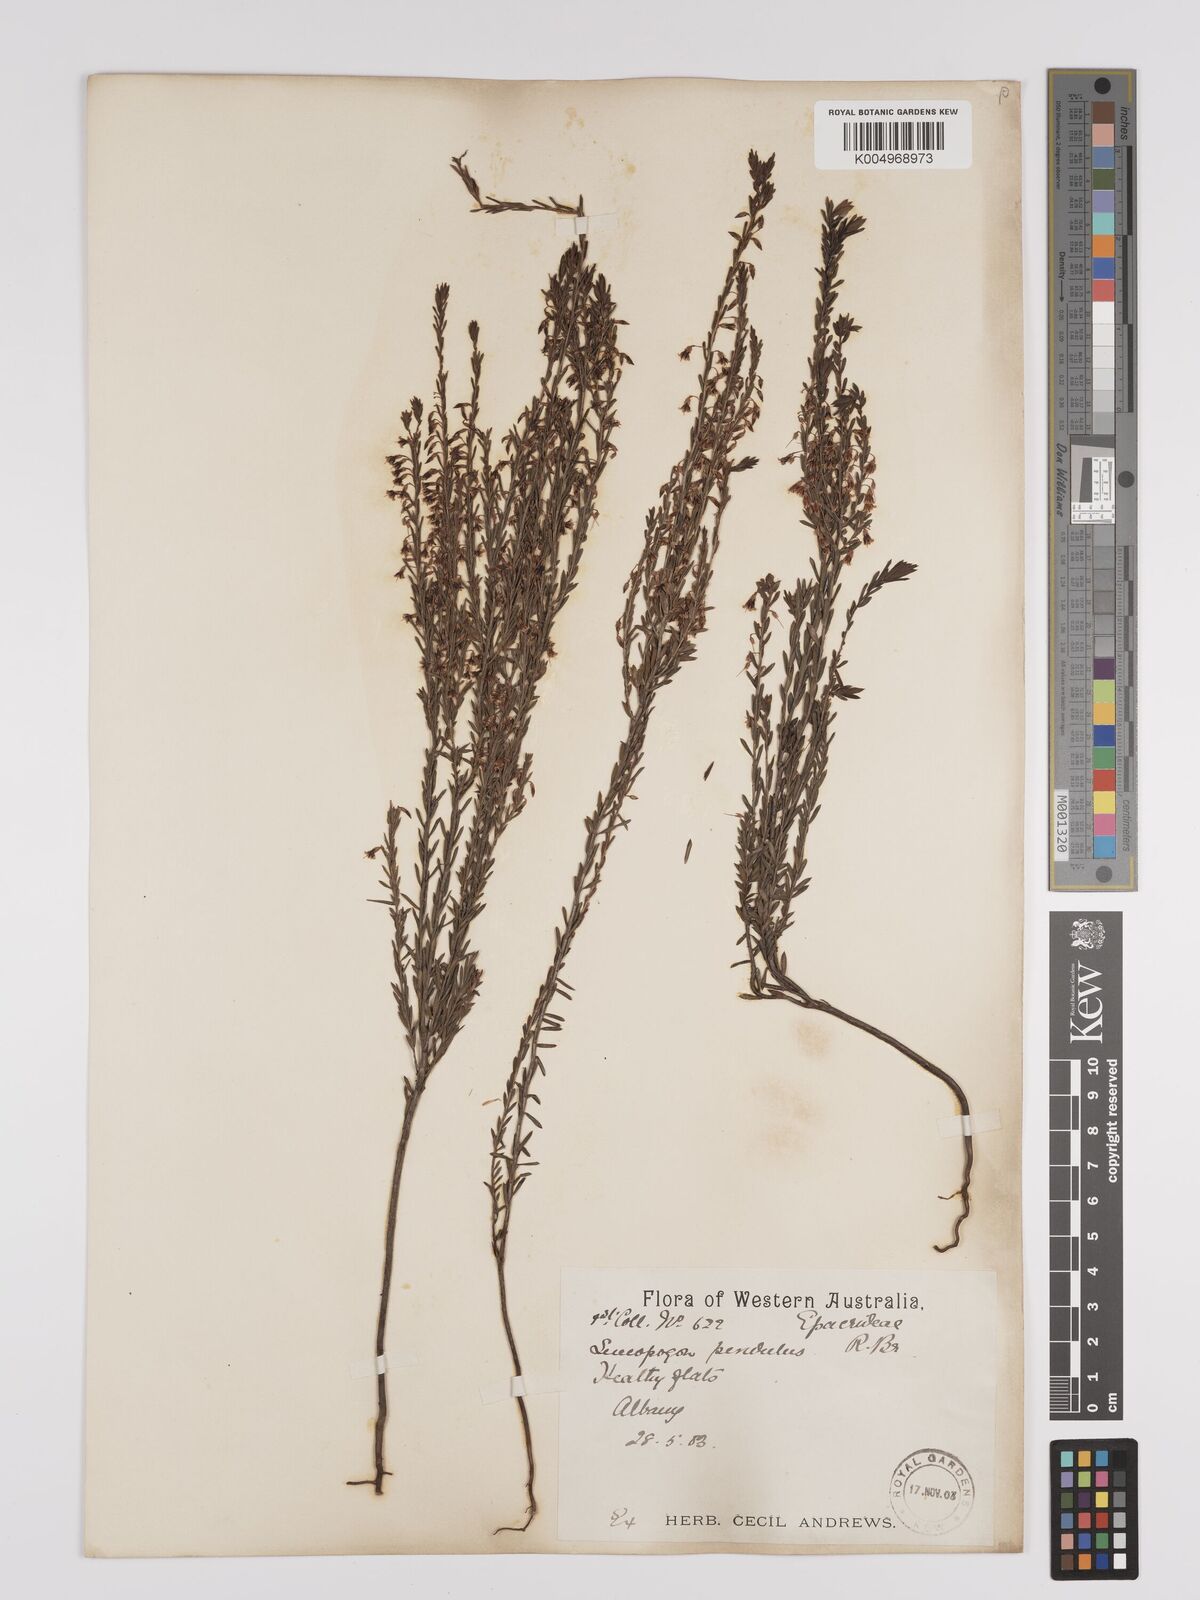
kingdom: Plantae
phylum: Tracheophyta
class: Magnoliopsida
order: Ericales
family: Ericaceae
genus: Styphelia
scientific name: Styphelia pendula
